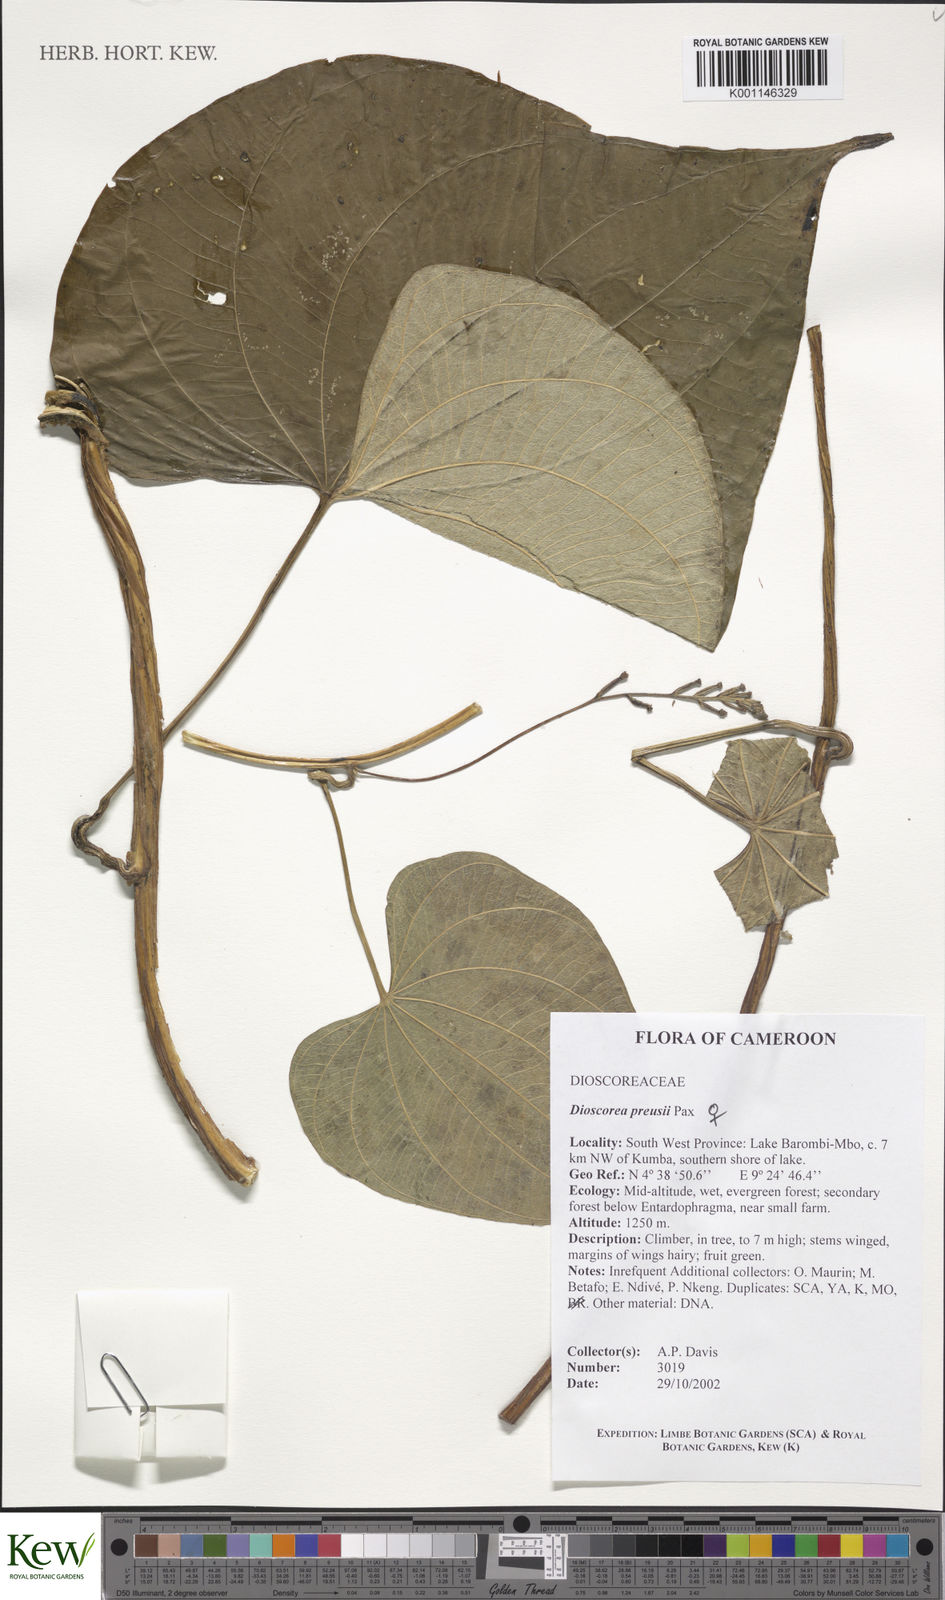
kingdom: Plantae
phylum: Tracheophyta
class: Liliopsida
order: Dioscoreales
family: Dioscoreaceae
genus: Dioscorea
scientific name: Dioscorea preussii
